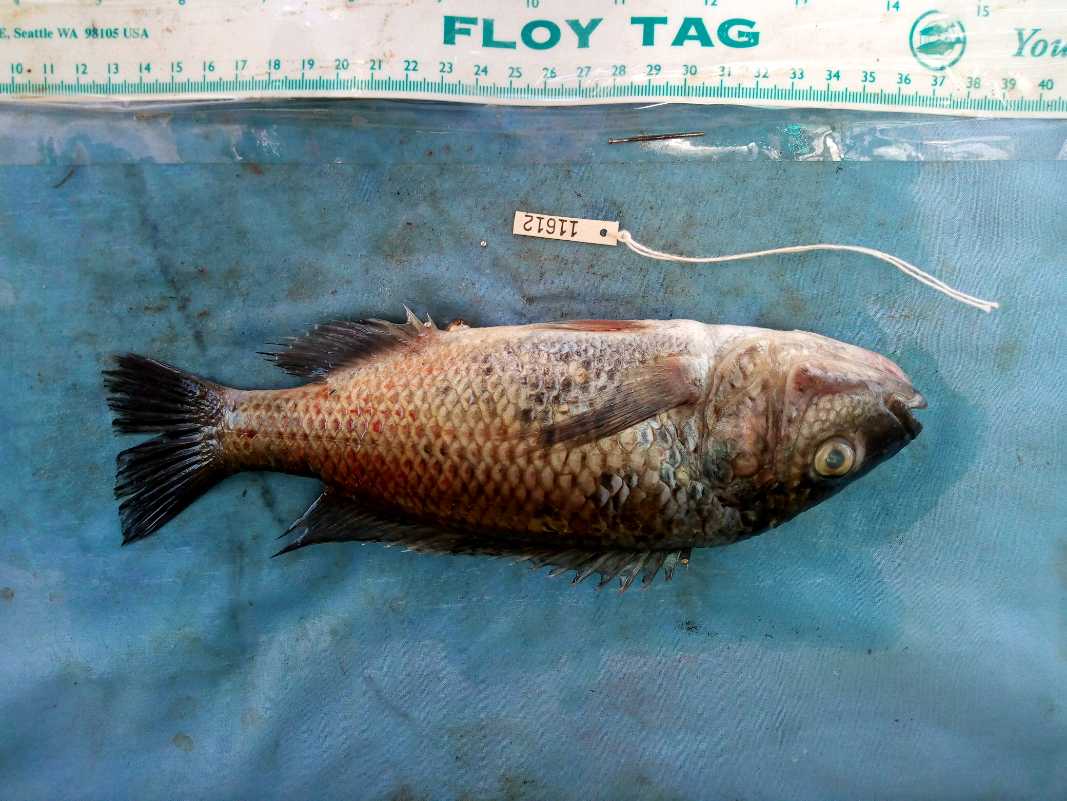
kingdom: Animalia
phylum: Chordata
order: Perciformes
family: Cichlidae
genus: Oreochromis
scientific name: Oreochromis hunteri
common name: Lake chala tilapia
